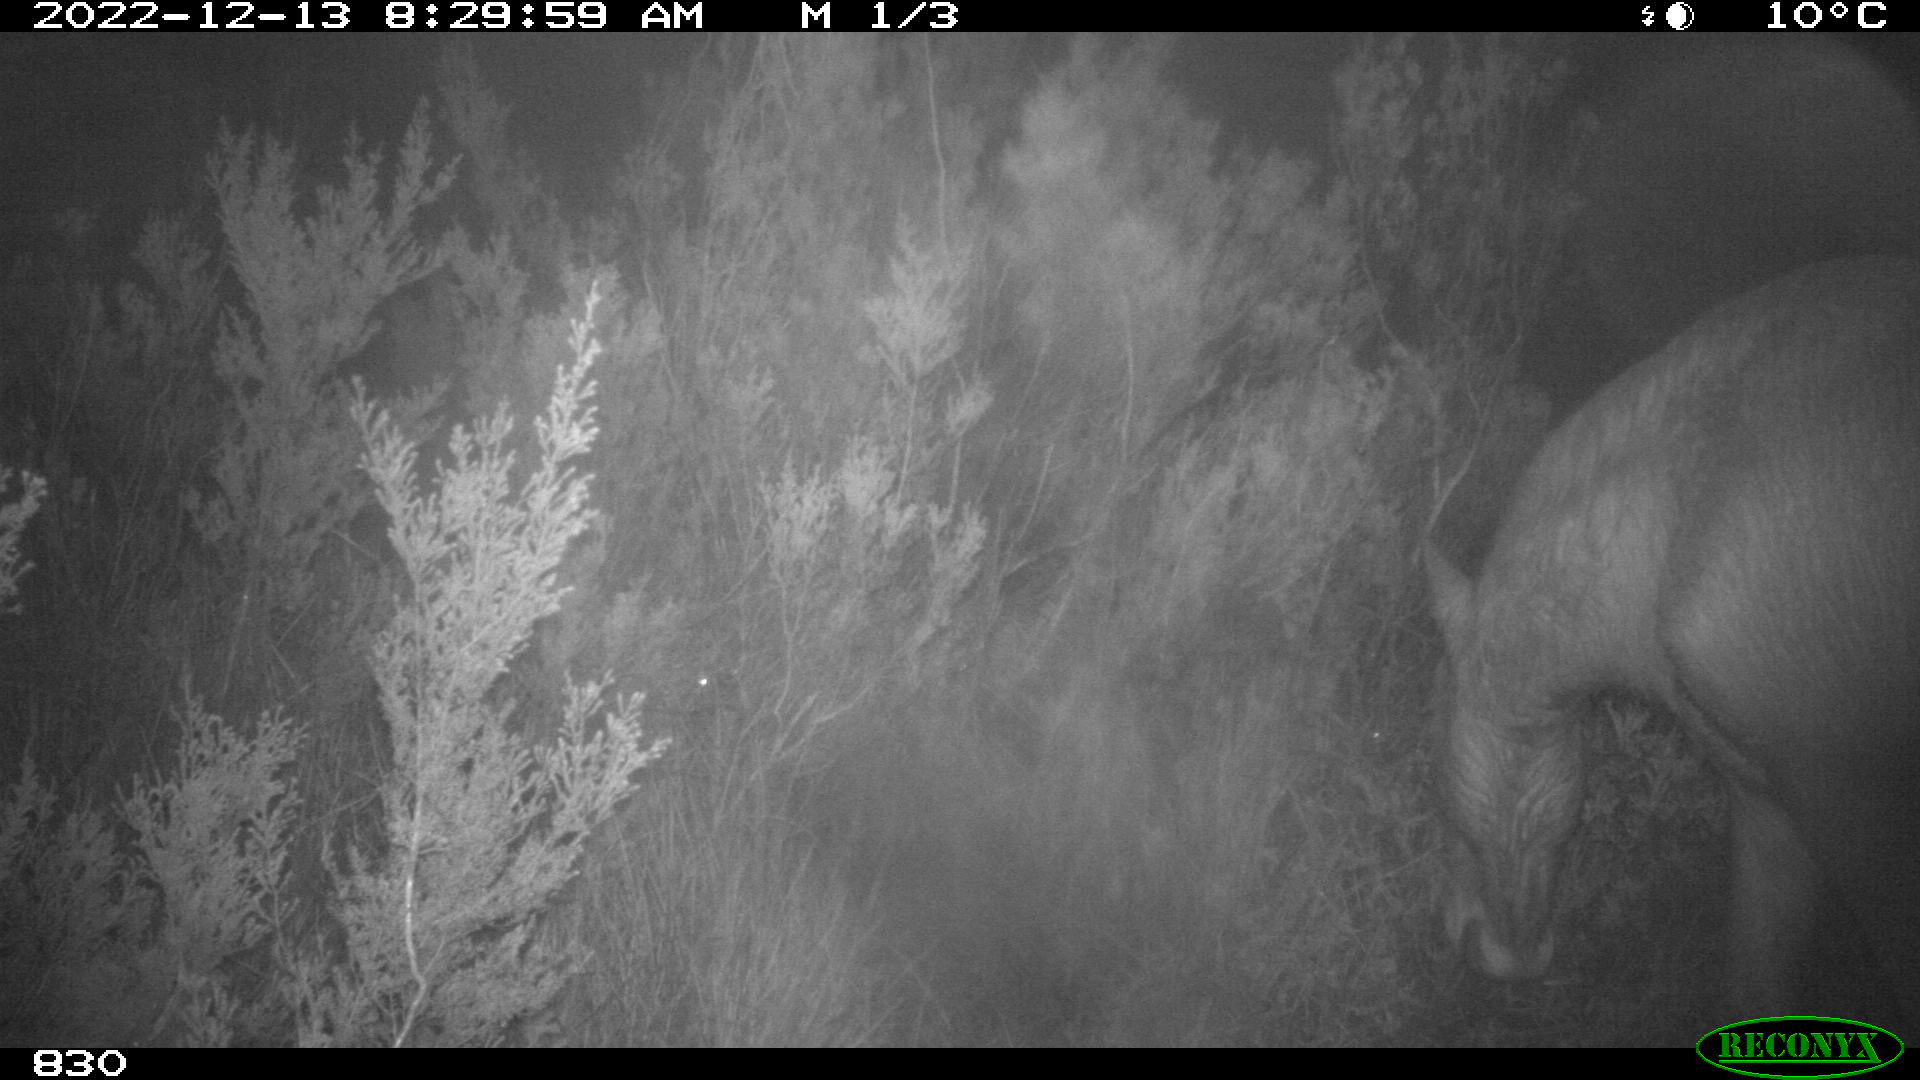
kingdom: Animalia
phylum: Chordata
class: Mammalia
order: Perissodactyla
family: Equidae
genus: Equus
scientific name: Equus caballus
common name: Horse
